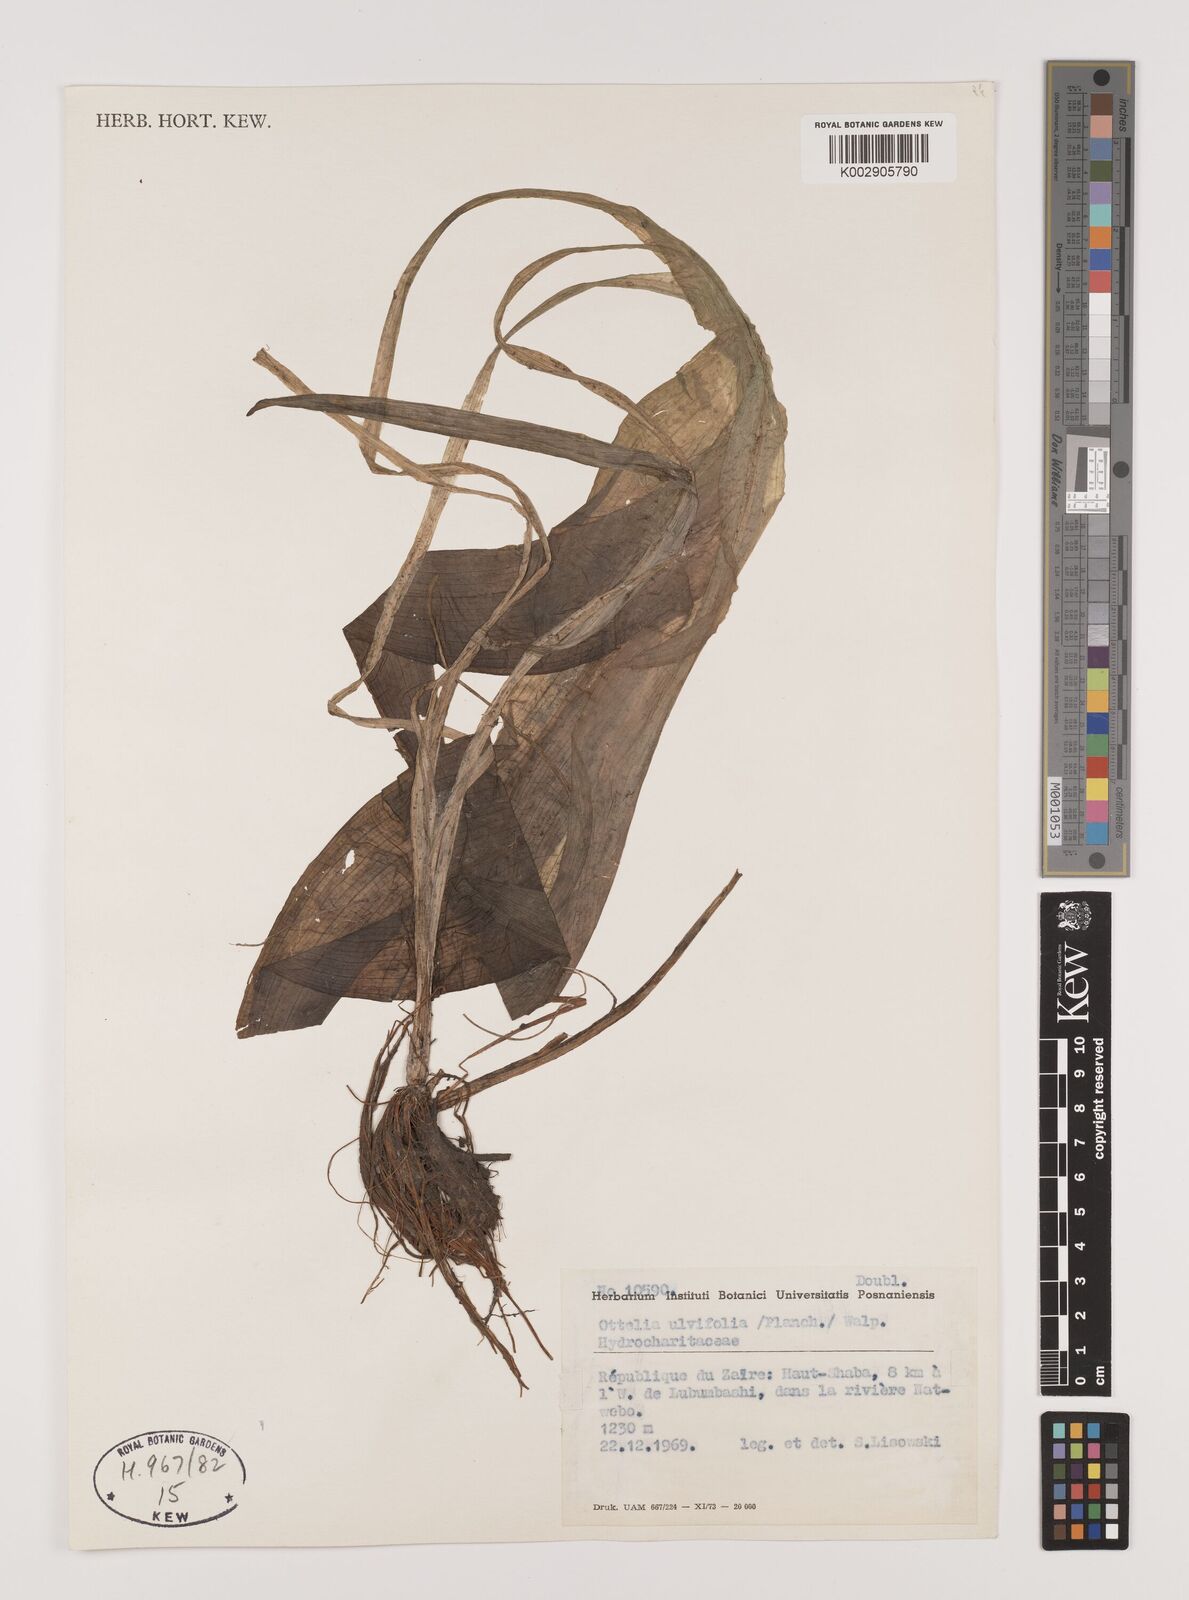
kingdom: Plantae
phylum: Tracheophyta
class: Liliopsida
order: Alismatales
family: Hydrocharitaceae
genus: Ottelia
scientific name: Ottelia ulvifolia
